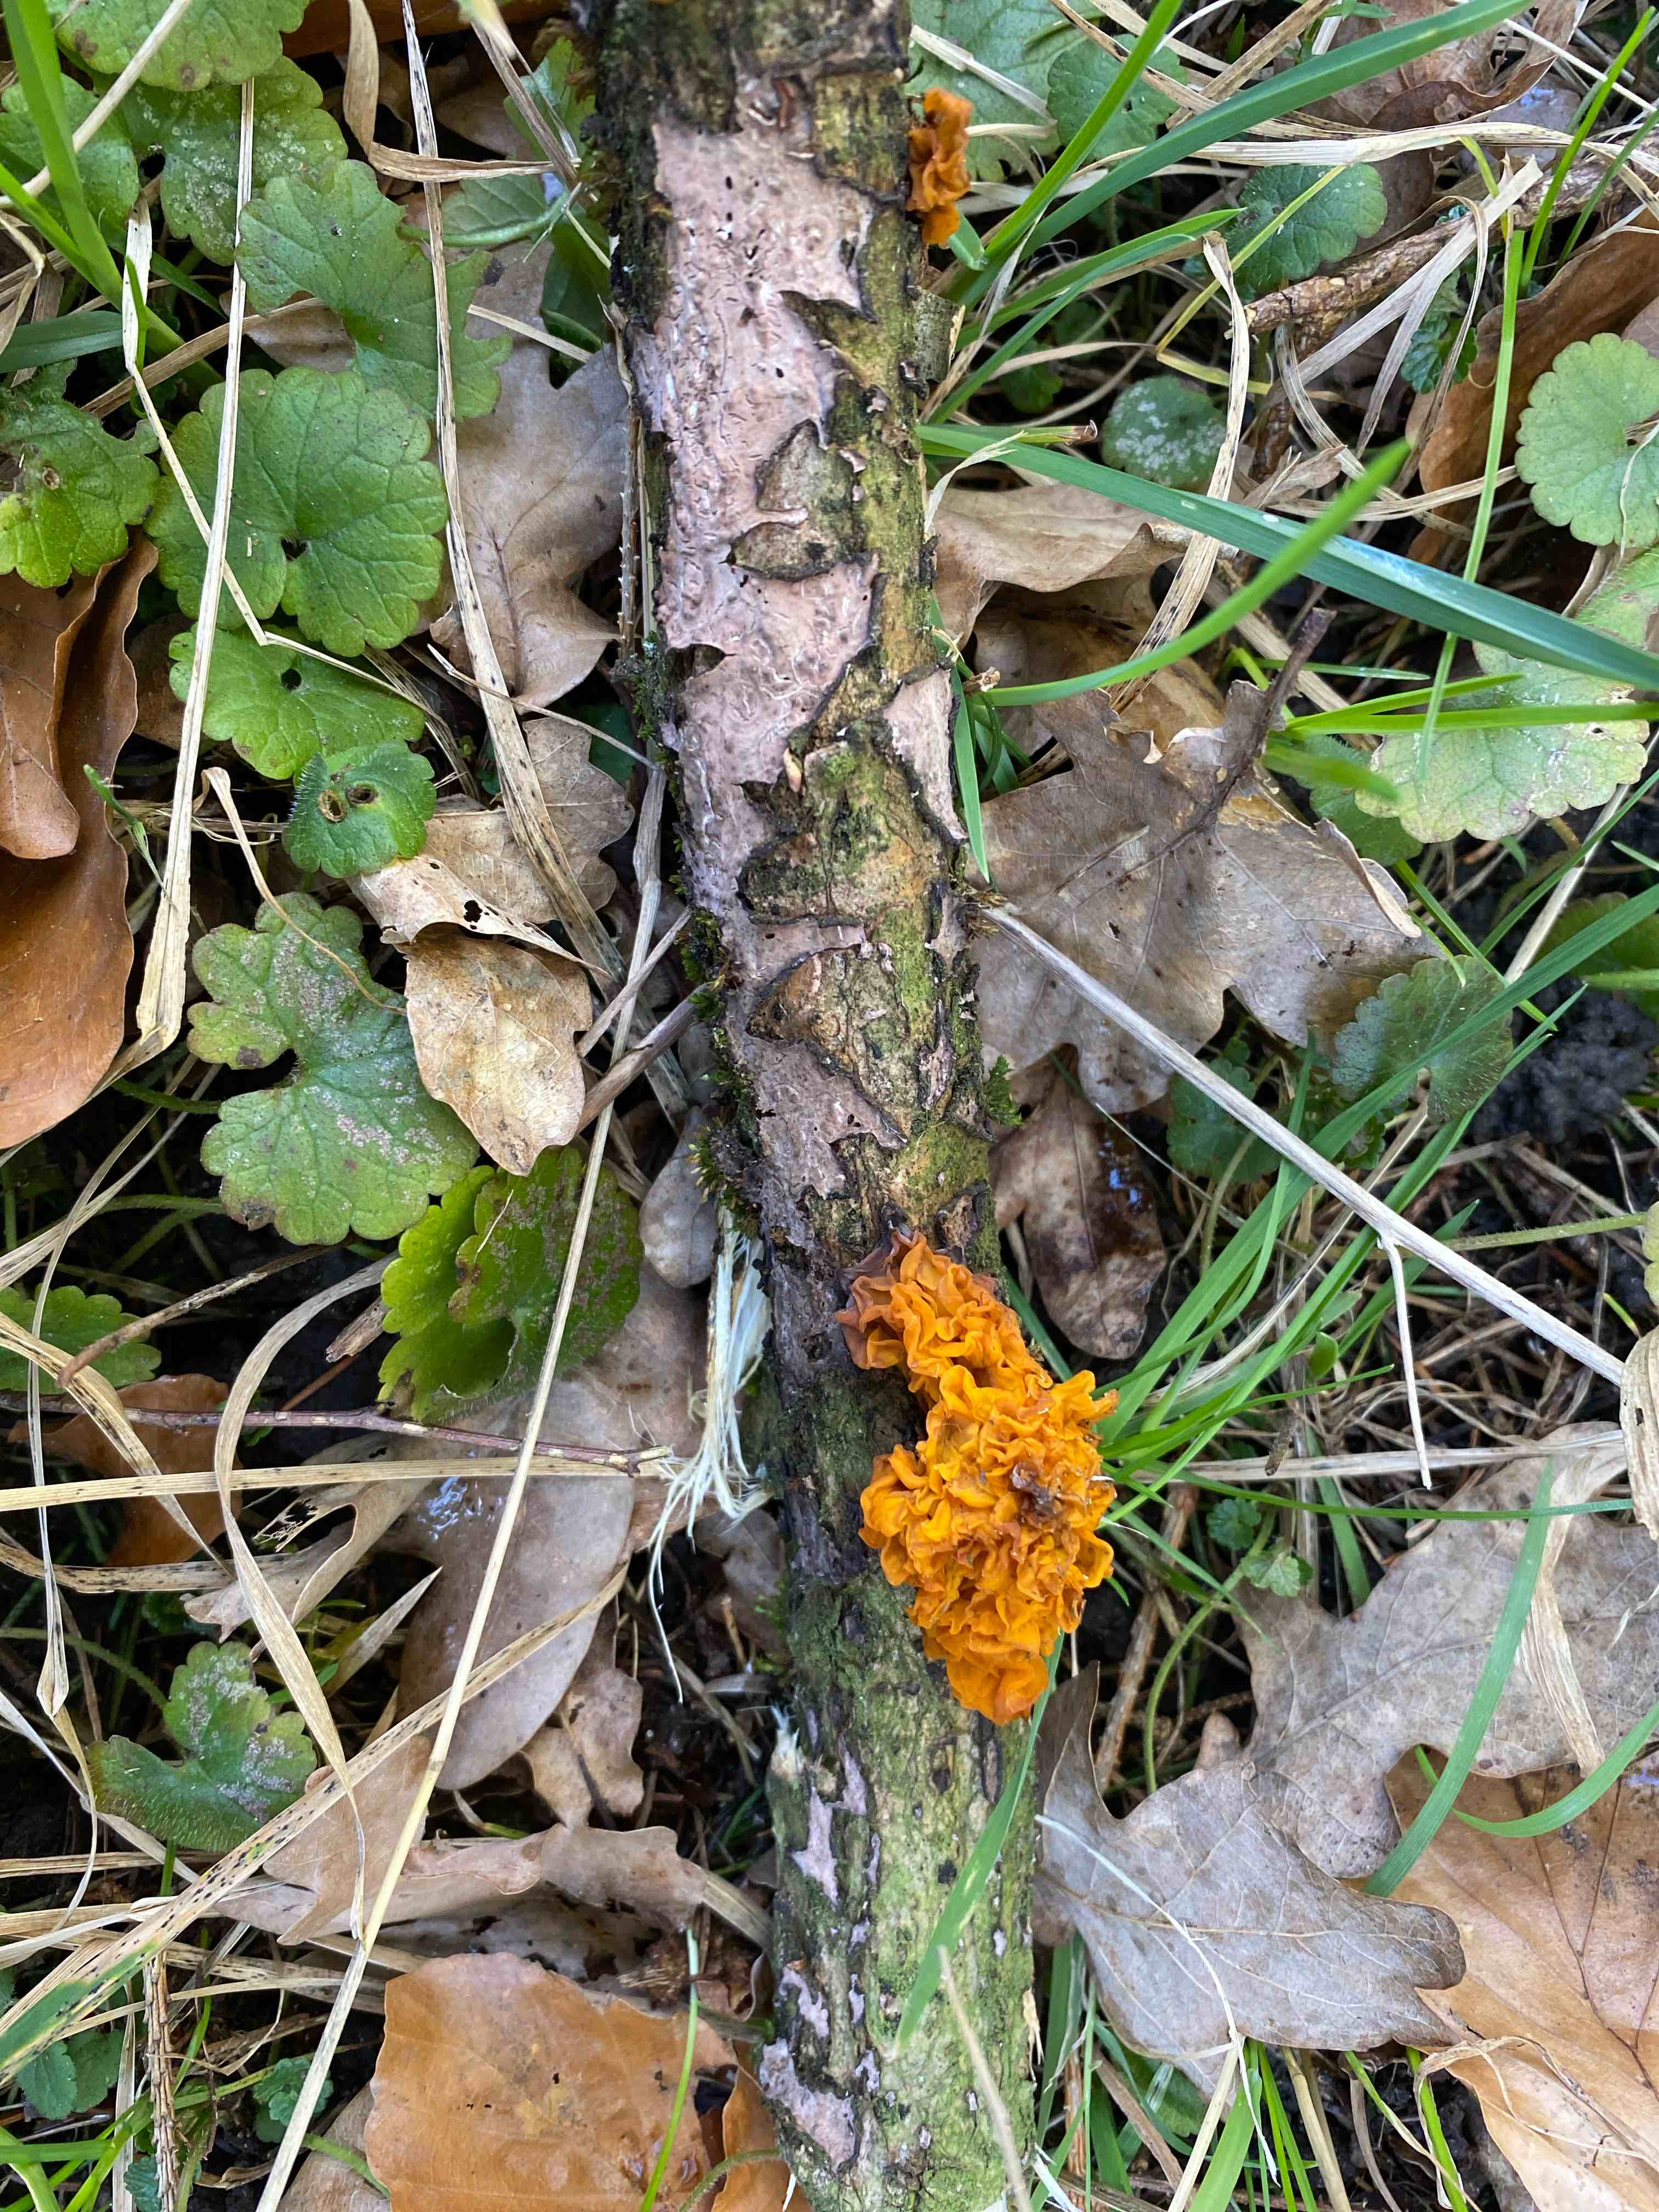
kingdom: Fungi
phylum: Basidiomycota
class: Tremellomycetes
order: Tremellales
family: Tremellaceae
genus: Tremella
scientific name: Tremella mesenterica
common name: gul bævresvamp
